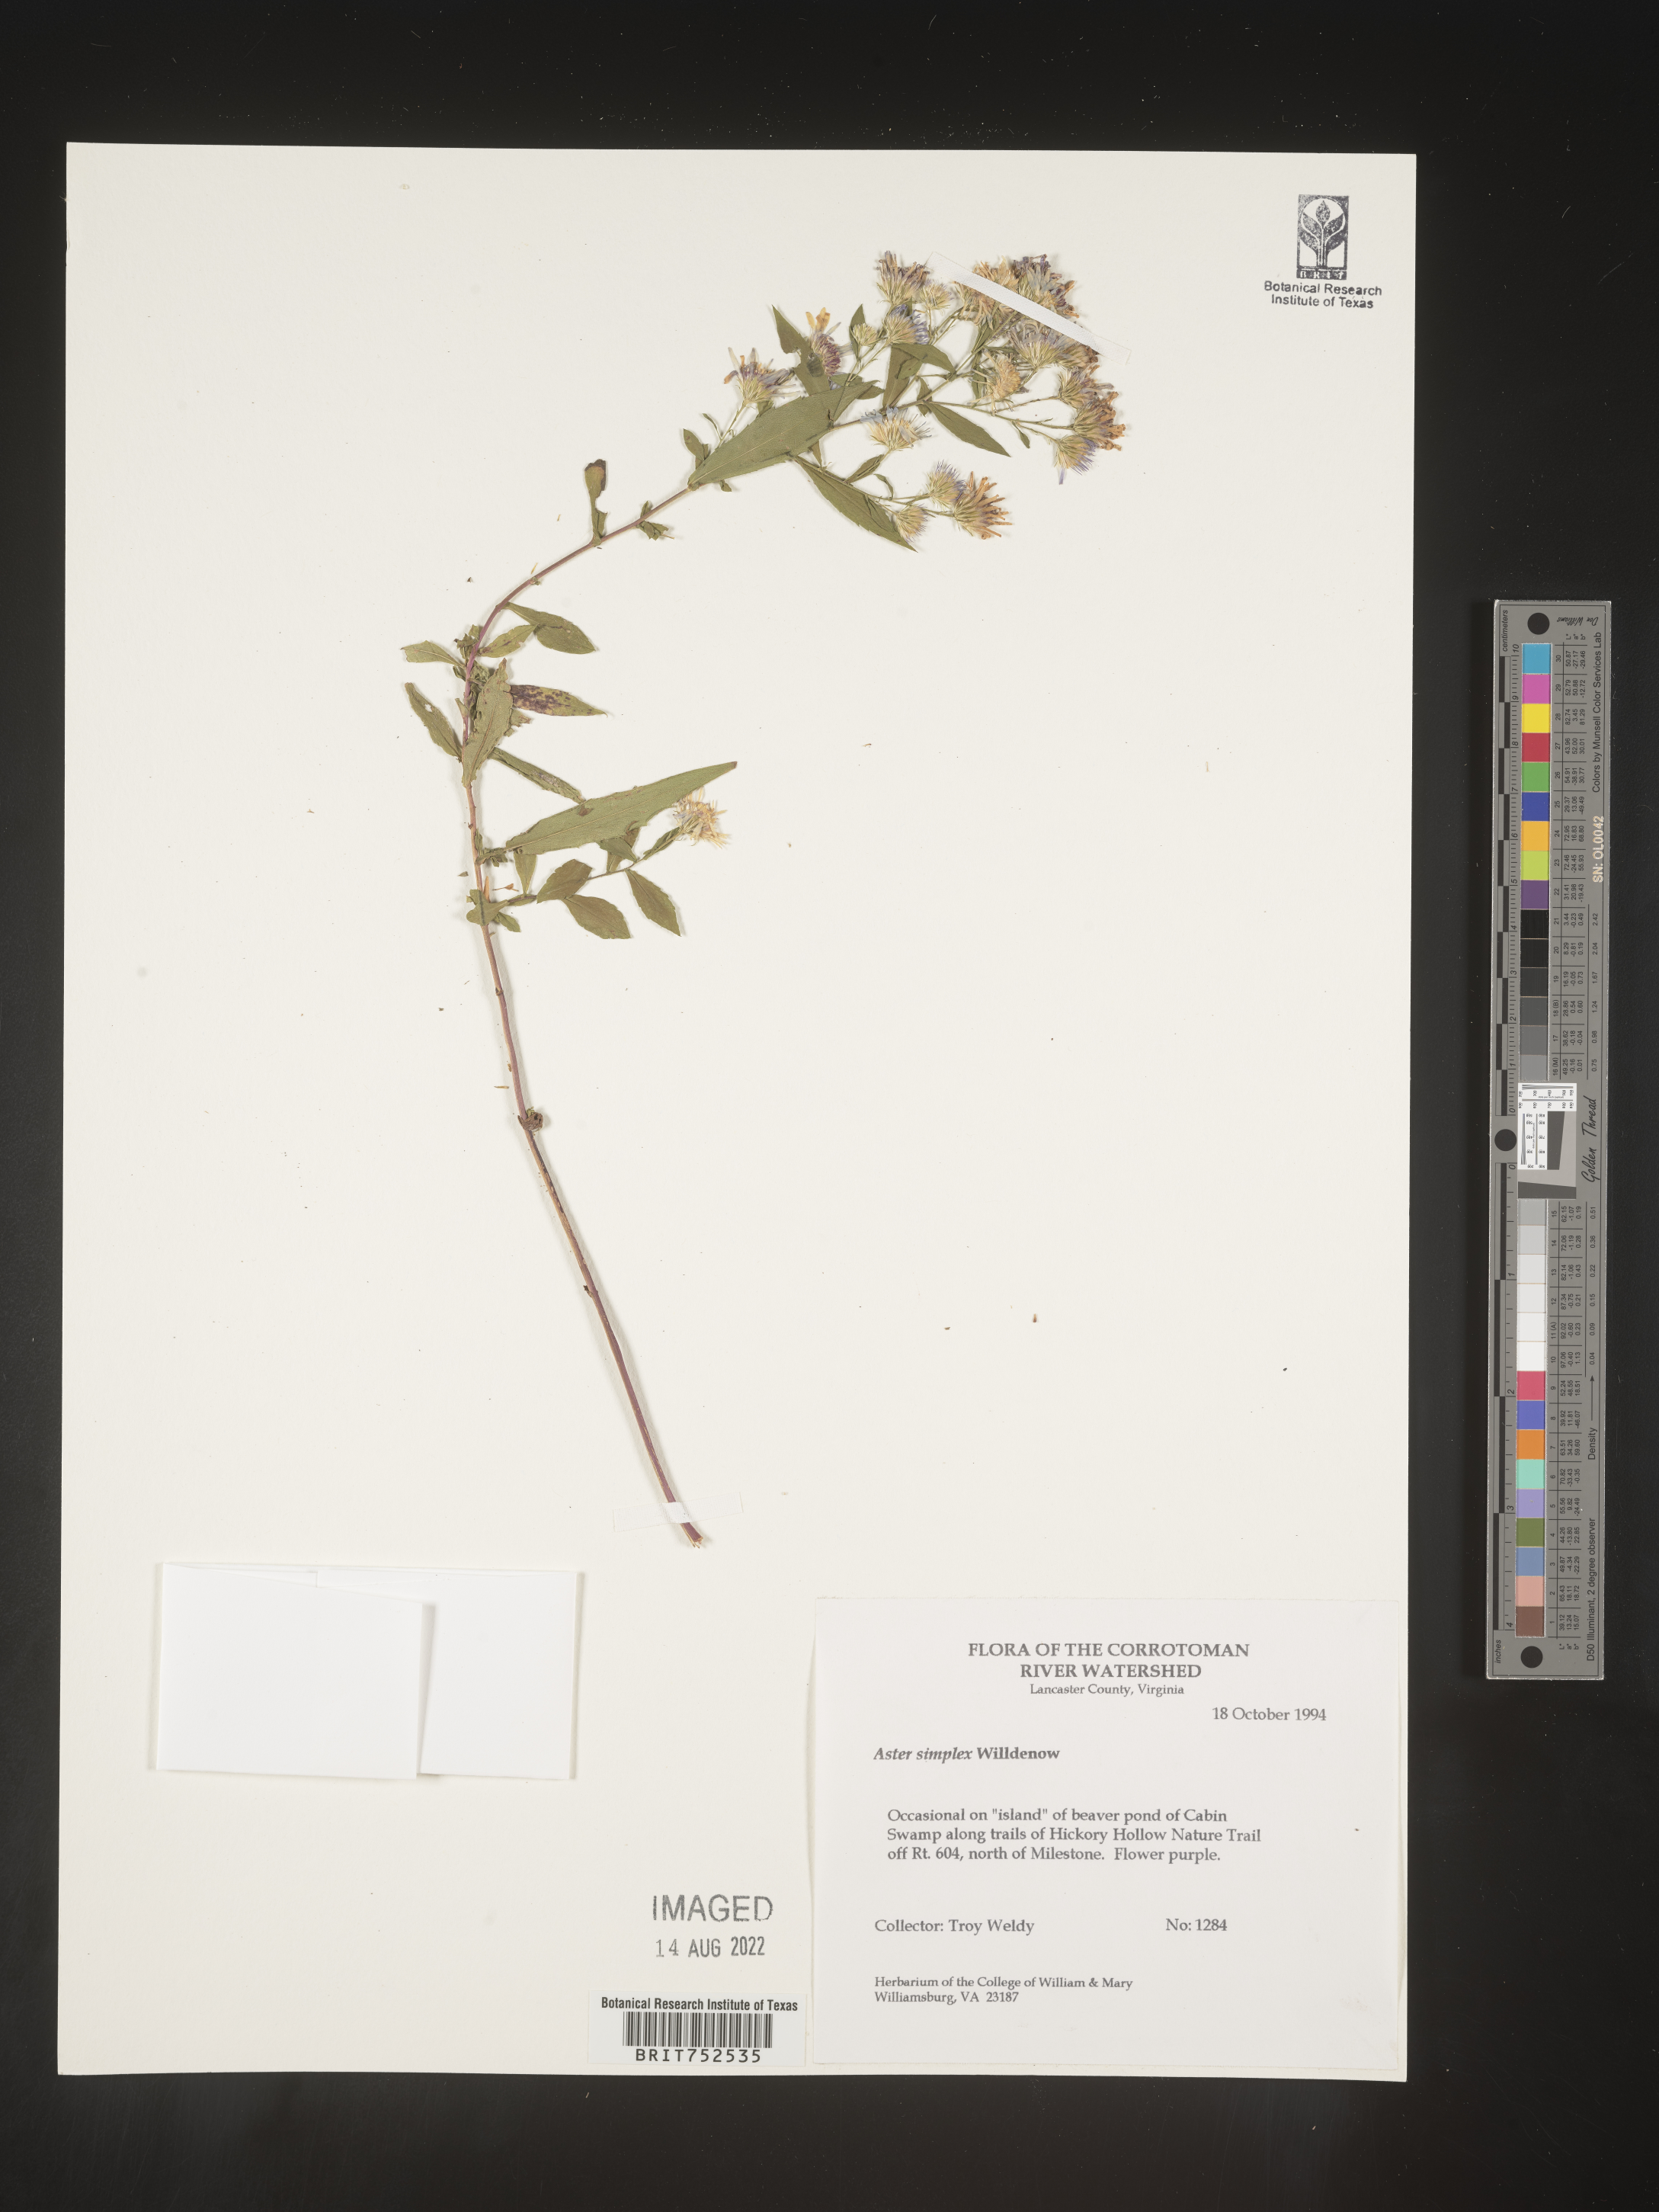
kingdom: Plantae
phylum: Tracheophyta
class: Magnoliopsida
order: Asterales
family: Asteraceae
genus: Symphyotrichum
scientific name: Symphyotrichum lanceolatum
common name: Panicled aster
